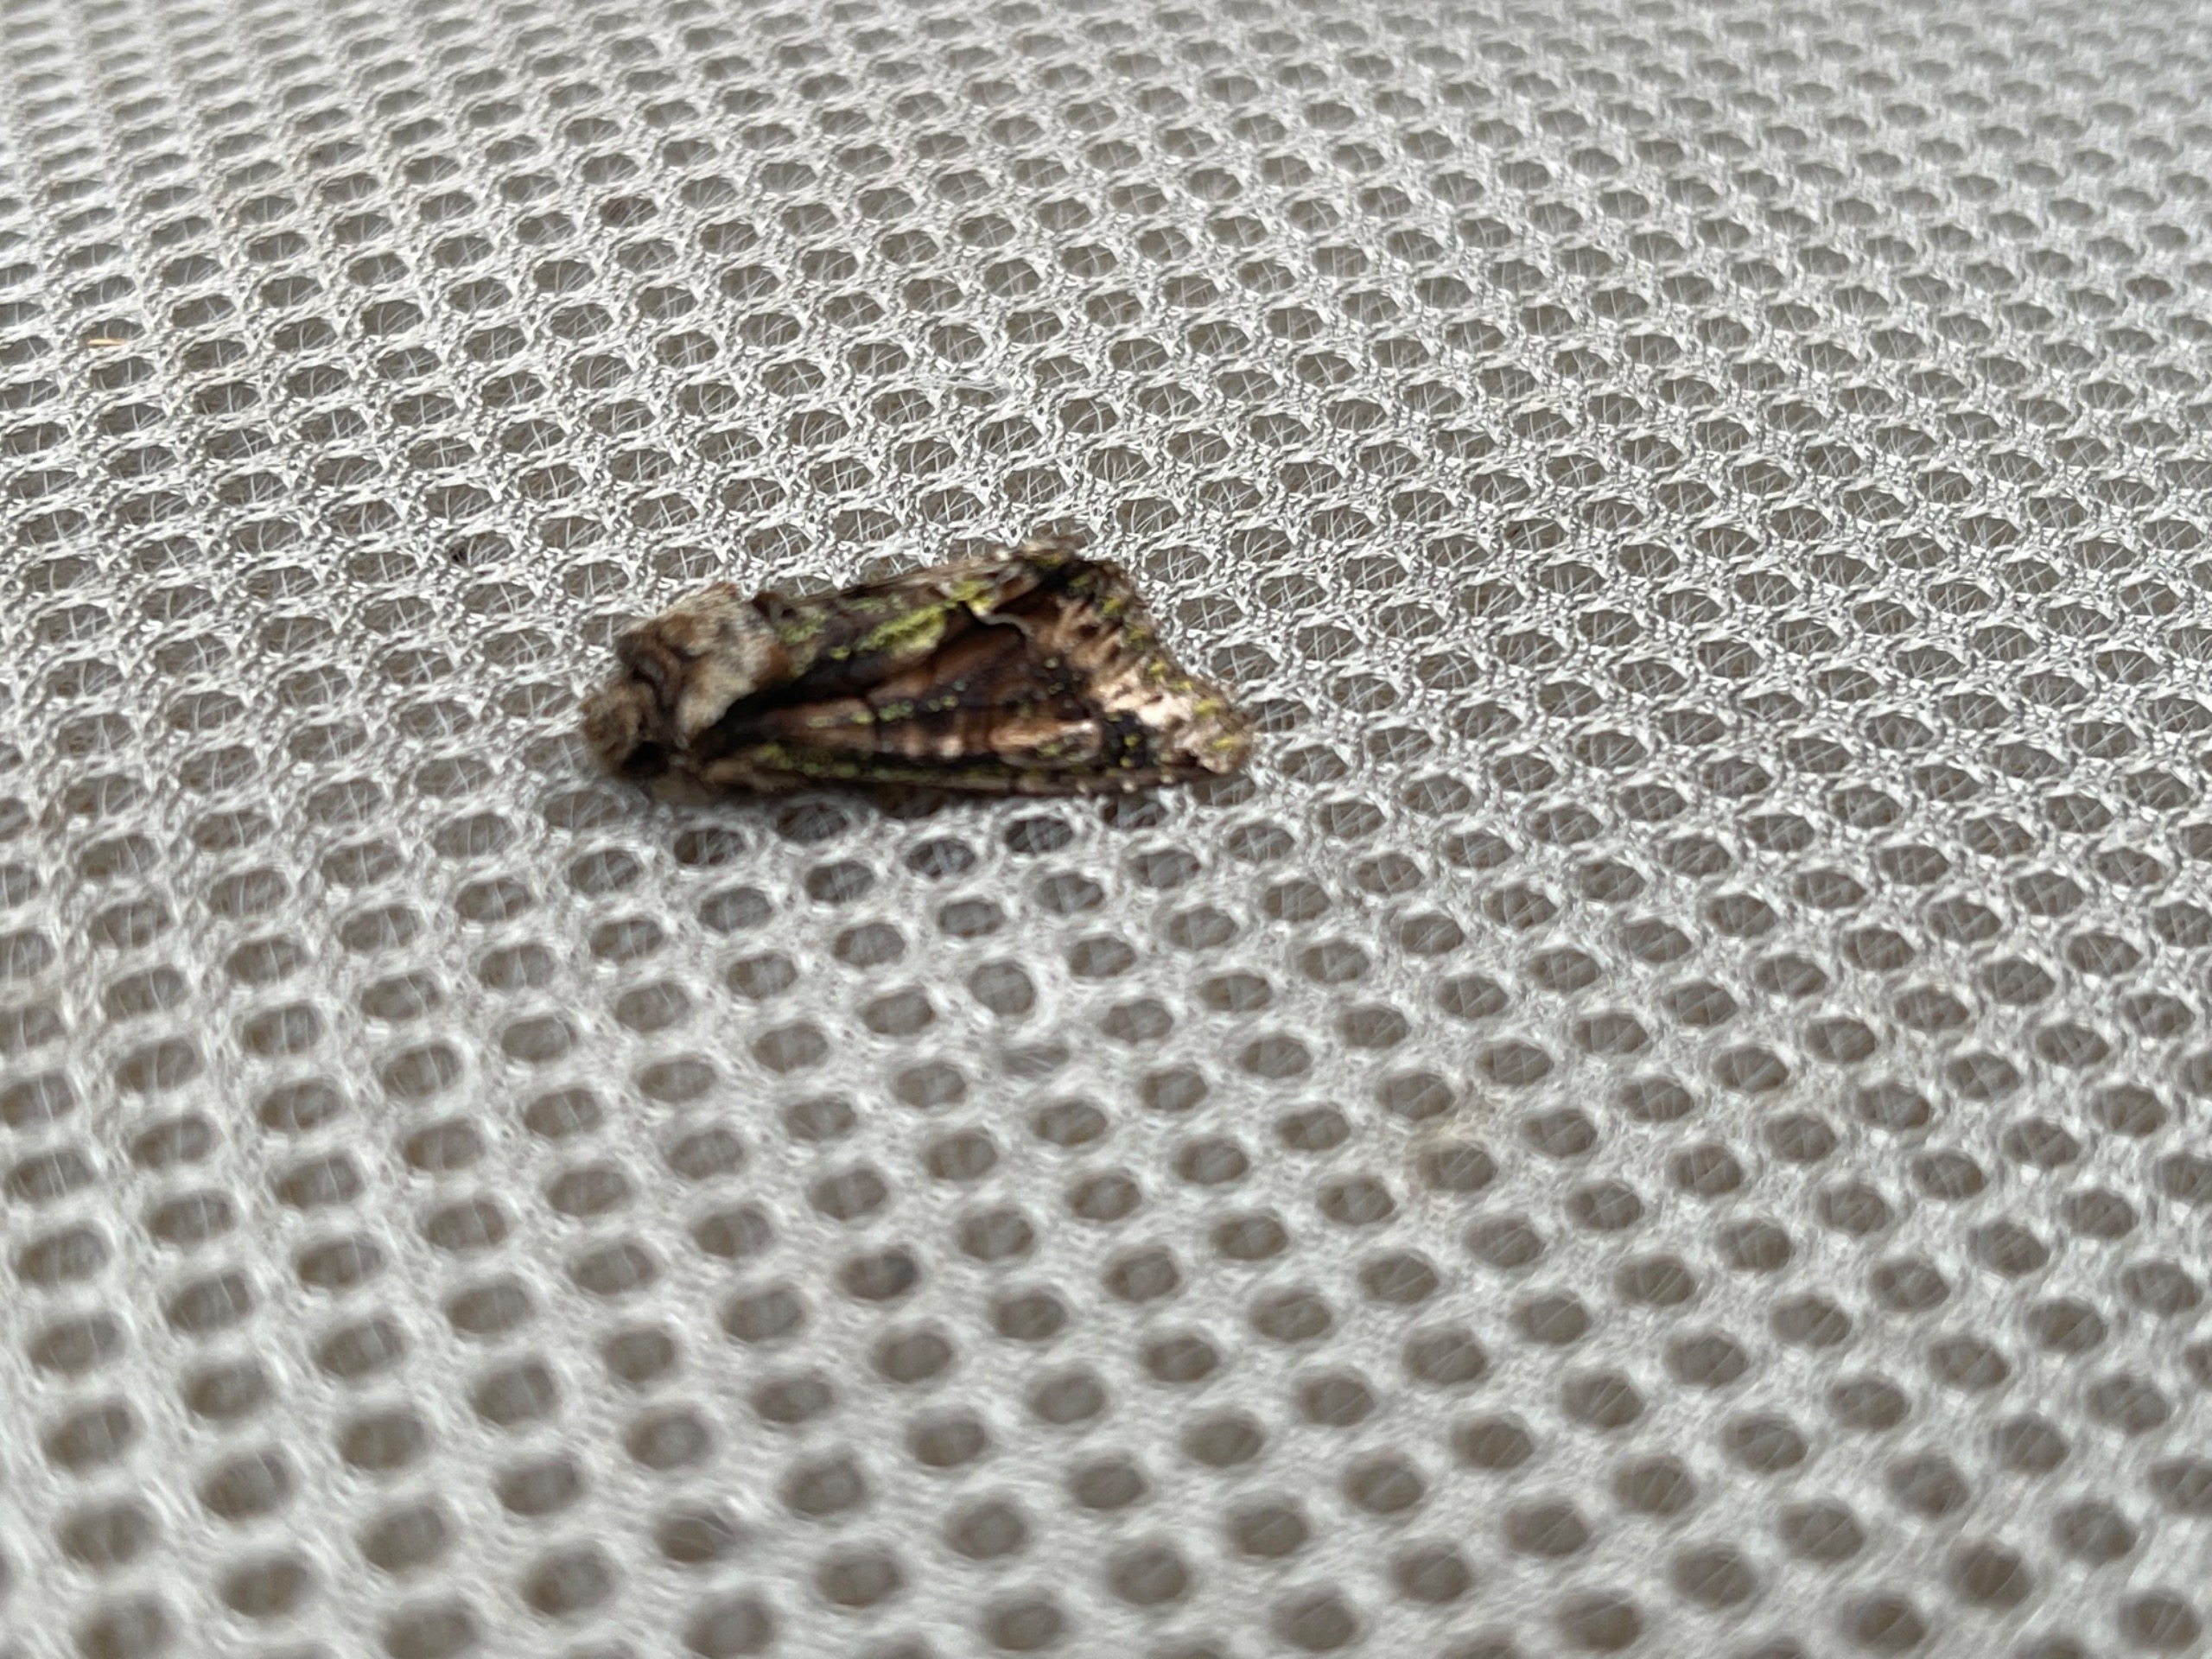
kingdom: Animalia
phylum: Arthropoda
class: Insecta
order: Lepidoptera
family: Noctuidae
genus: Allophyes
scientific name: Allophyes oxyacanthae
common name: Tjørneugle
